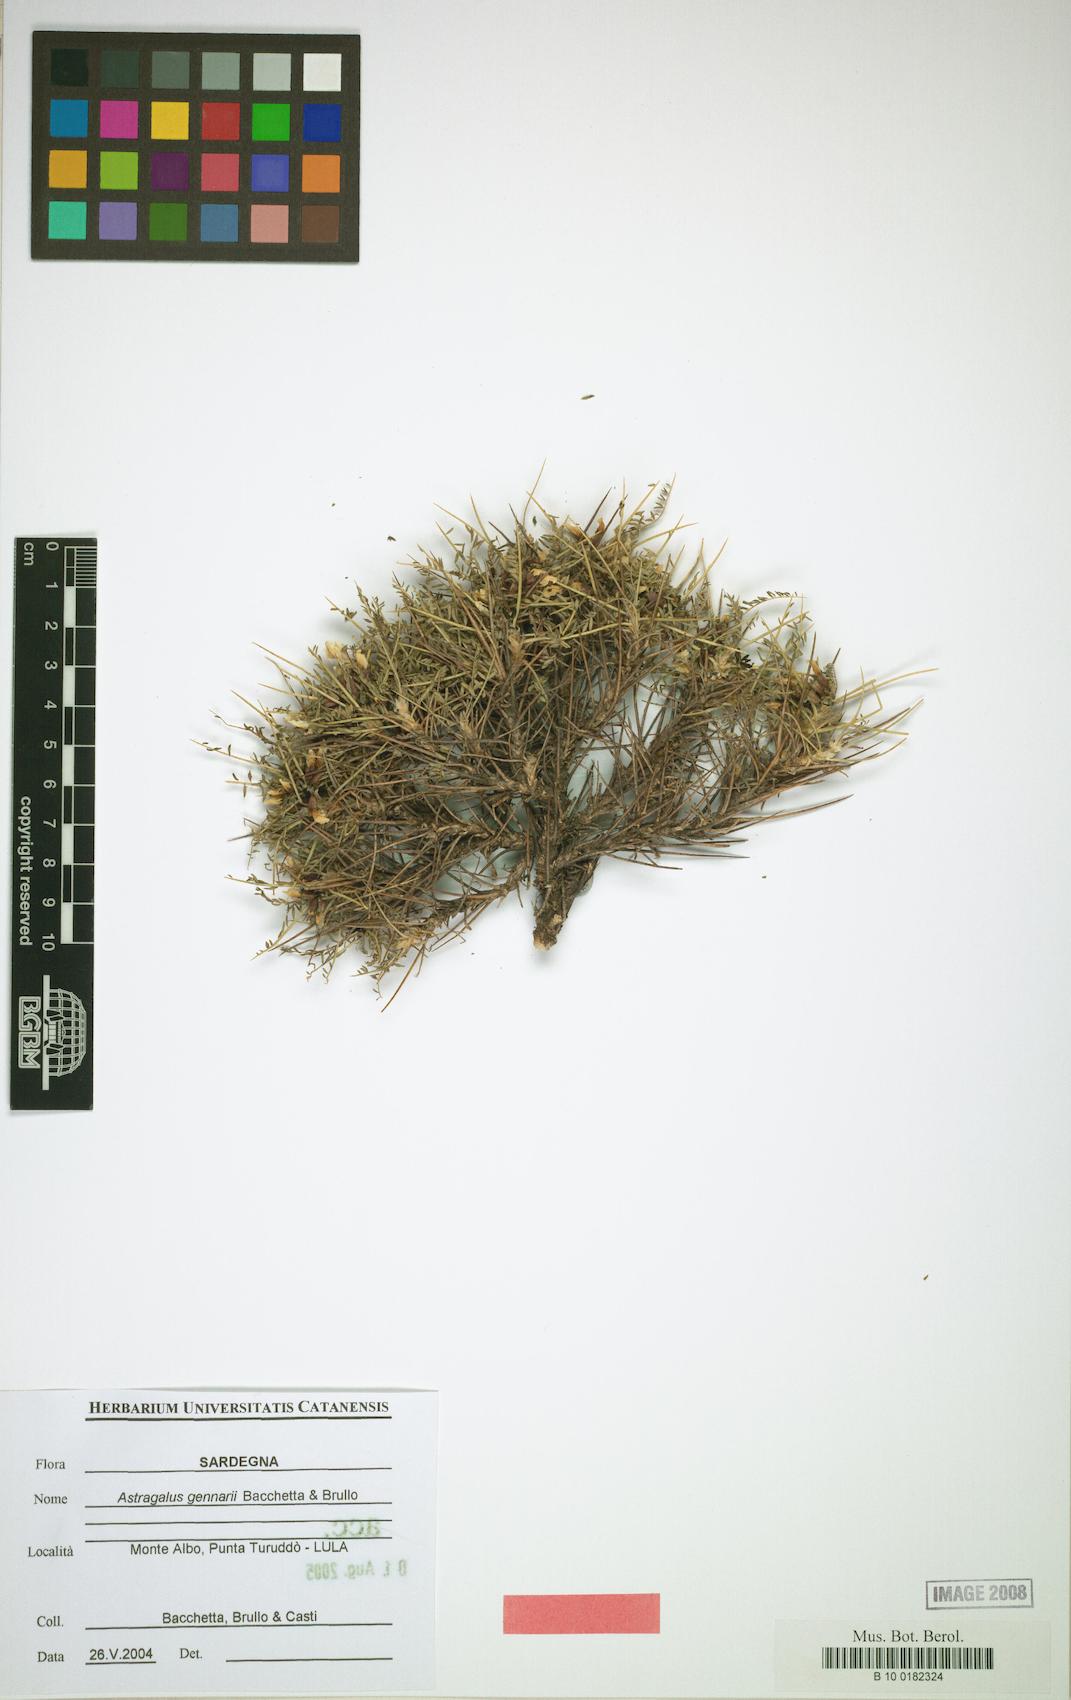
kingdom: Plantae
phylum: Tracheophyta
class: Magnoliopsida
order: Fabales
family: Fabaceae
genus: Astragalus
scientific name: Astragalus gennarii
